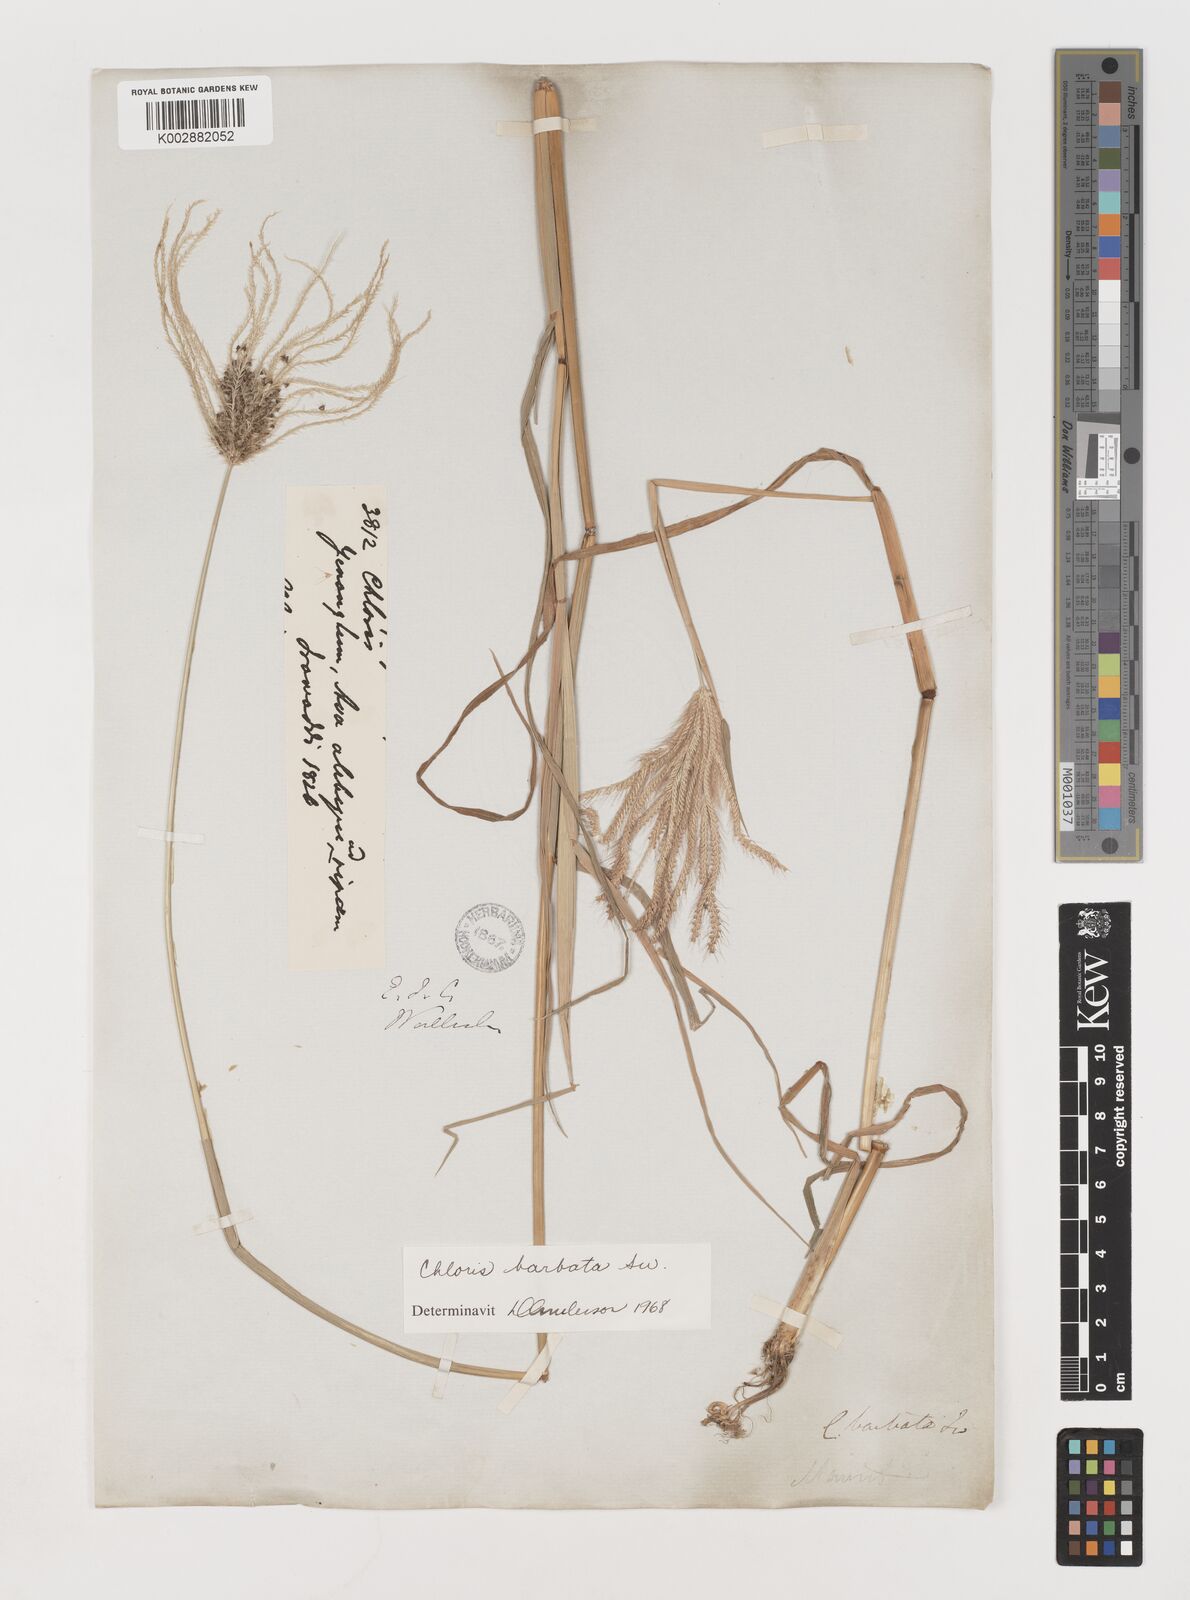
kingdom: Plantae
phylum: Tracheophyta
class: Liliopsida
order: Poales
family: Poaceae
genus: Chloris
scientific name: Chloris barbata
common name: Swollen fingergrass
